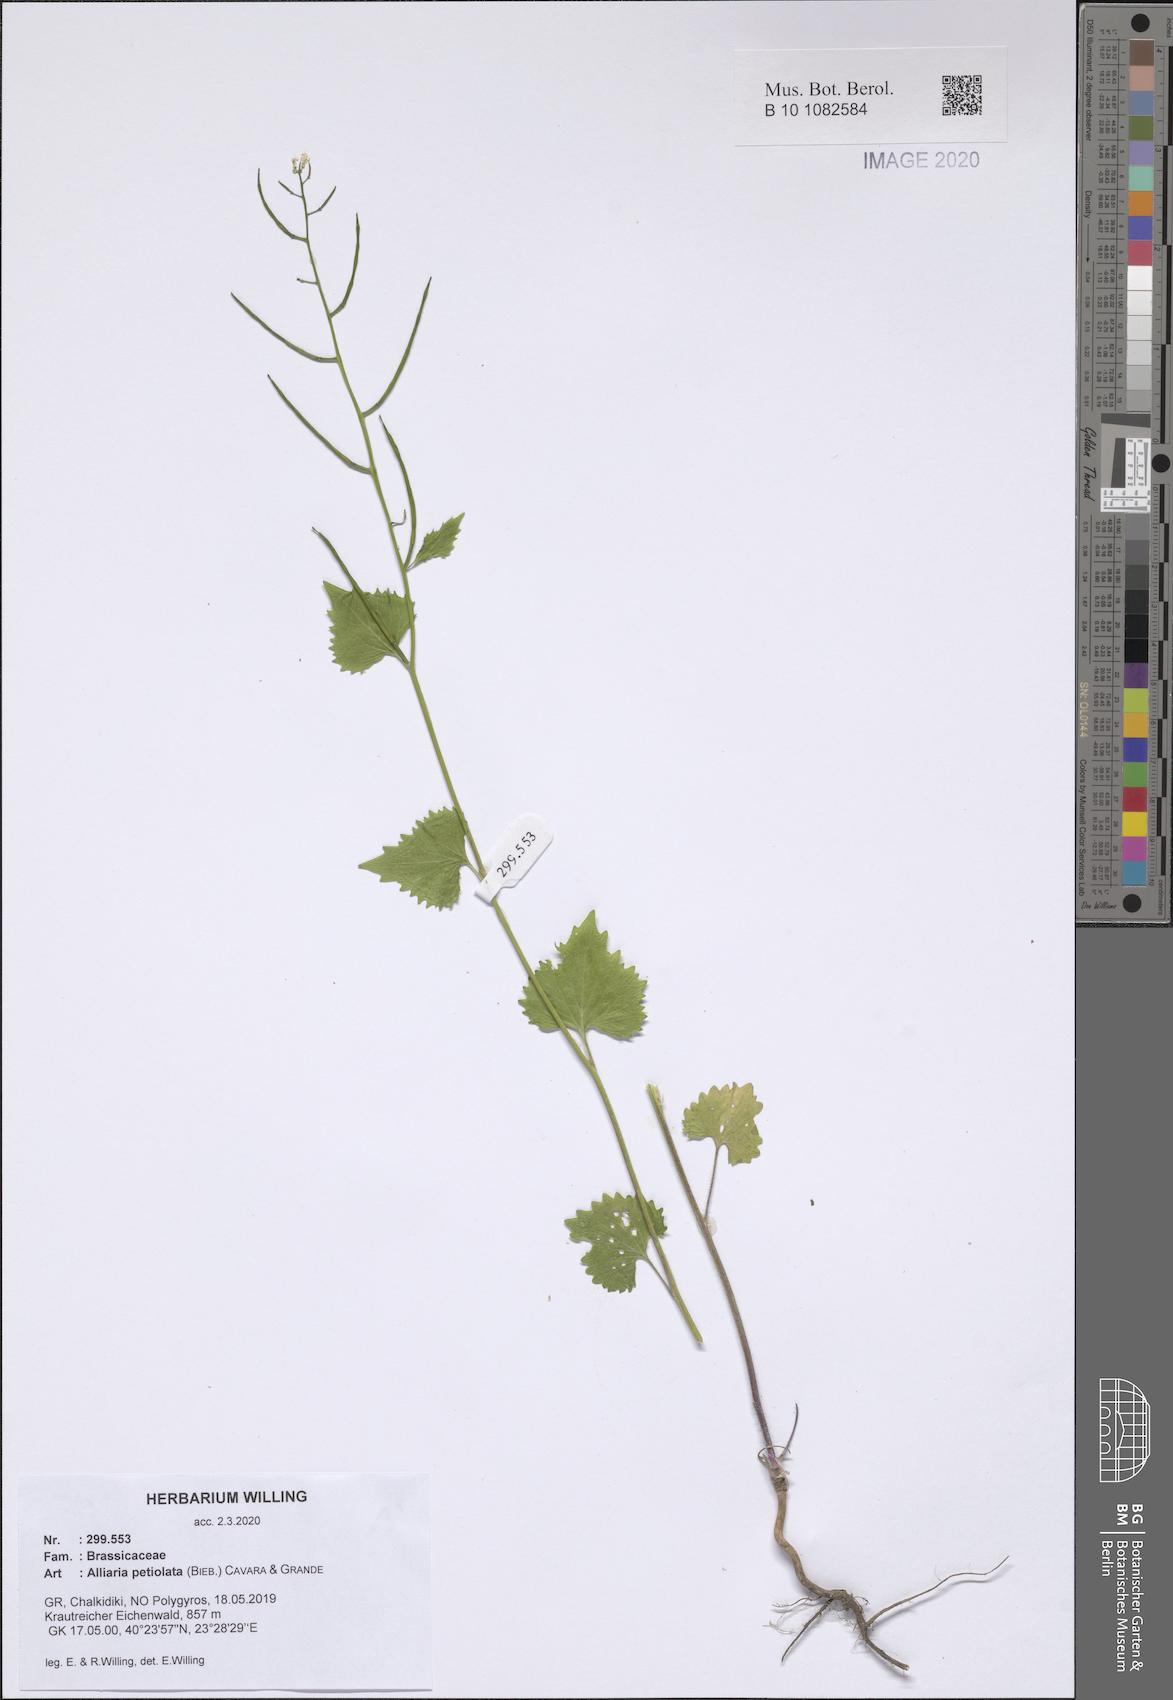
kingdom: Plantae
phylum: Tracheophyta
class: Magnoliopsida
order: Brassicales
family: Brassicaceae
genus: Alliaria
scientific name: Alliaria petiolata
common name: Garlic mustard
